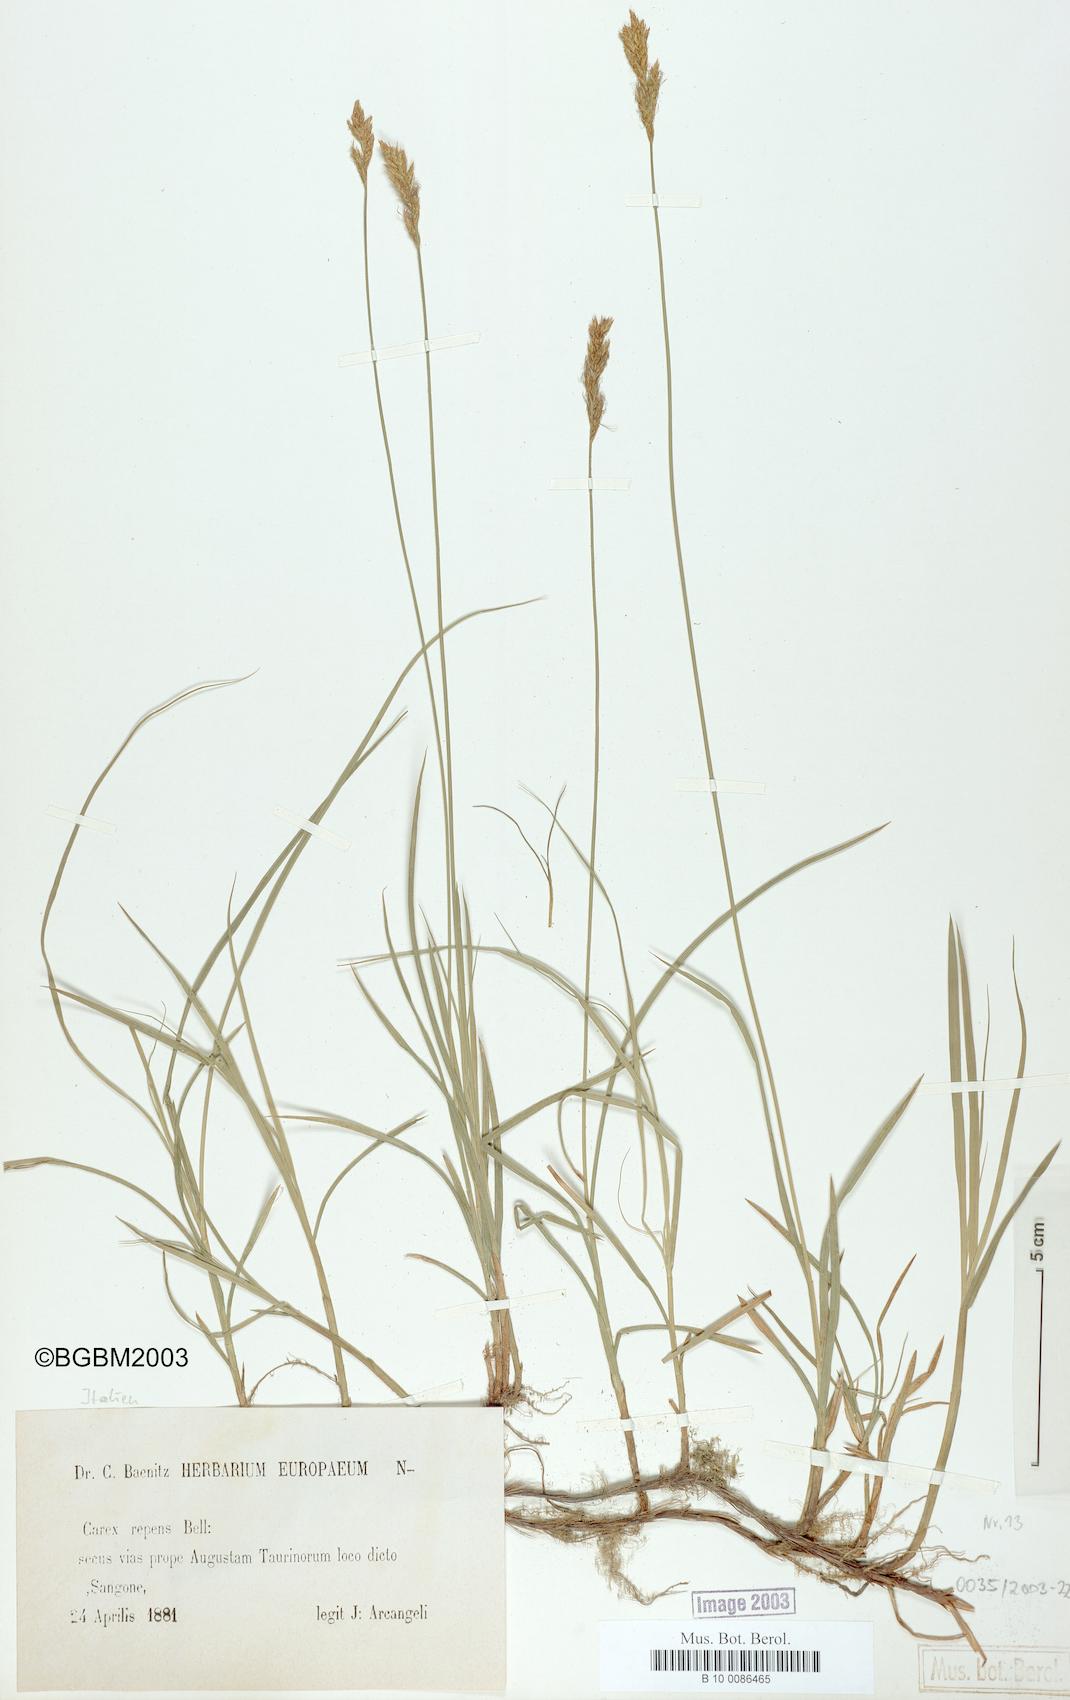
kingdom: Plantae
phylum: Tracheophyta
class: Liliopsida
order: Poales
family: Cyperaceae
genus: Carex
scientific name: Carex repens
